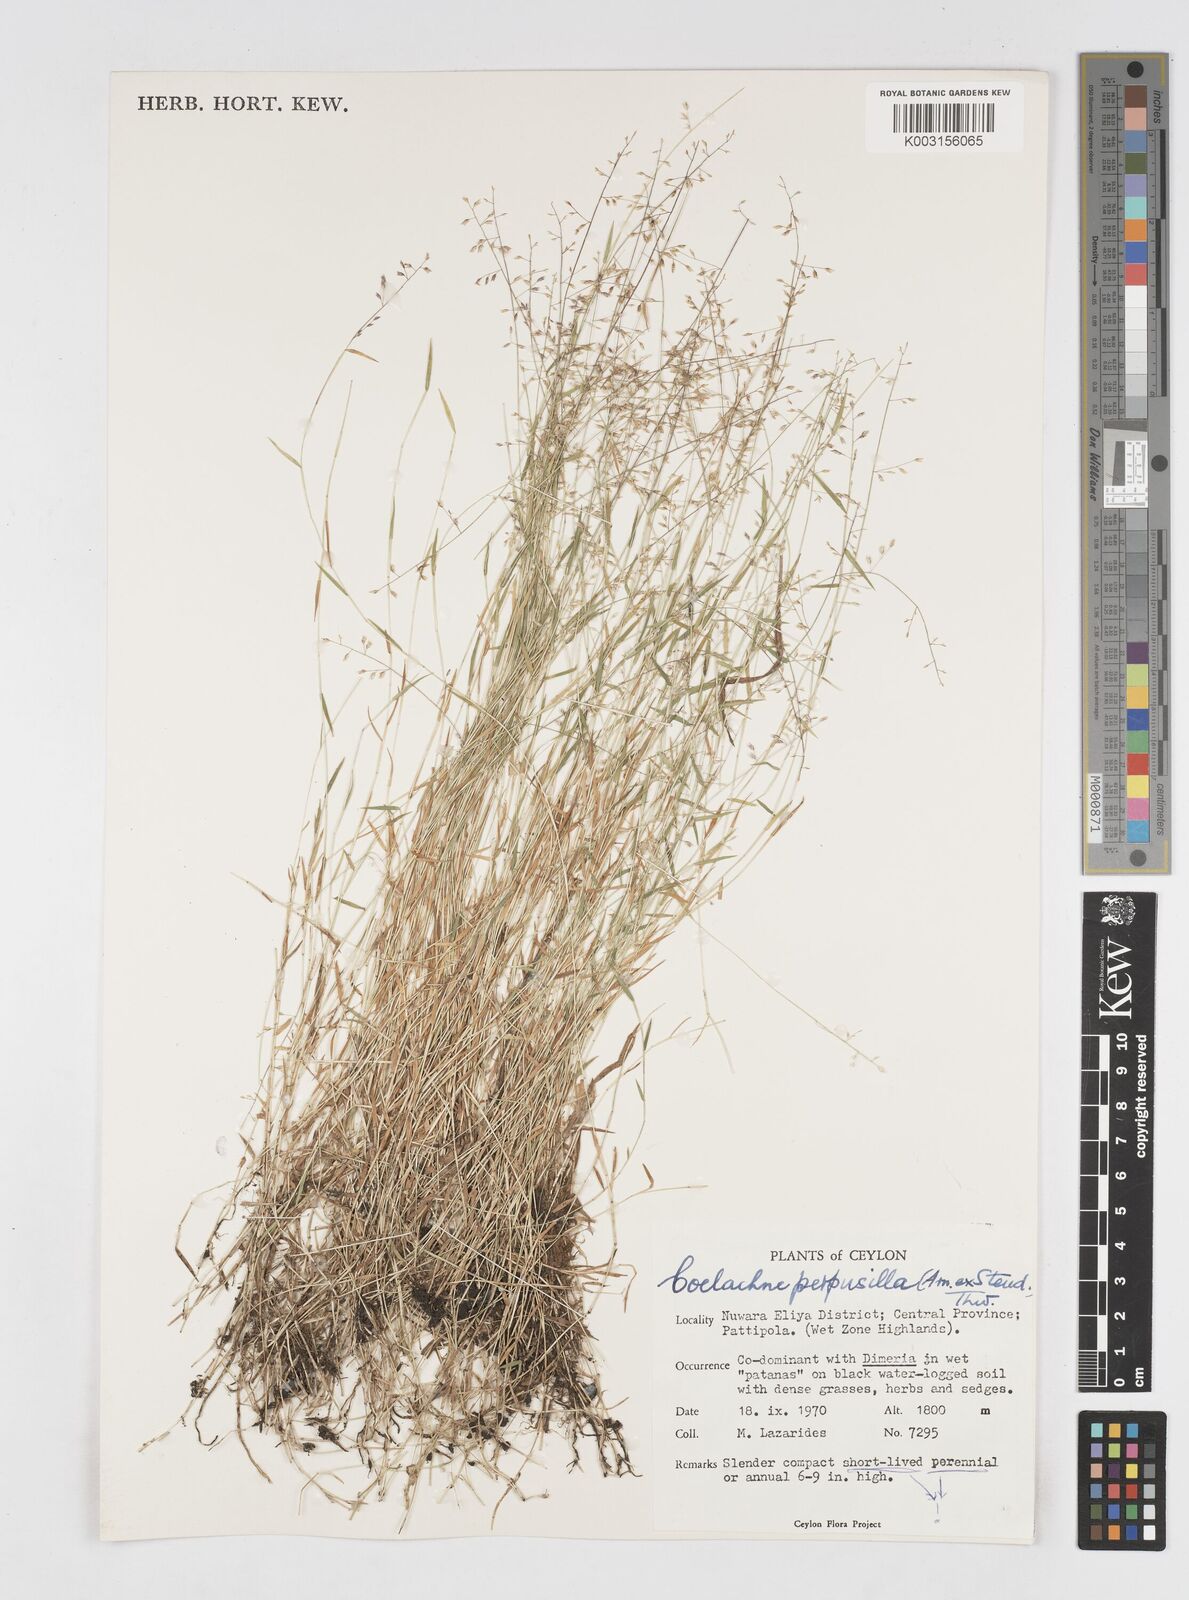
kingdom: Plantae
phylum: Tracheophyta
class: Liliopsida
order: Poales
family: Poaceae
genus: Coelachne
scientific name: Coelachne perpusilla
